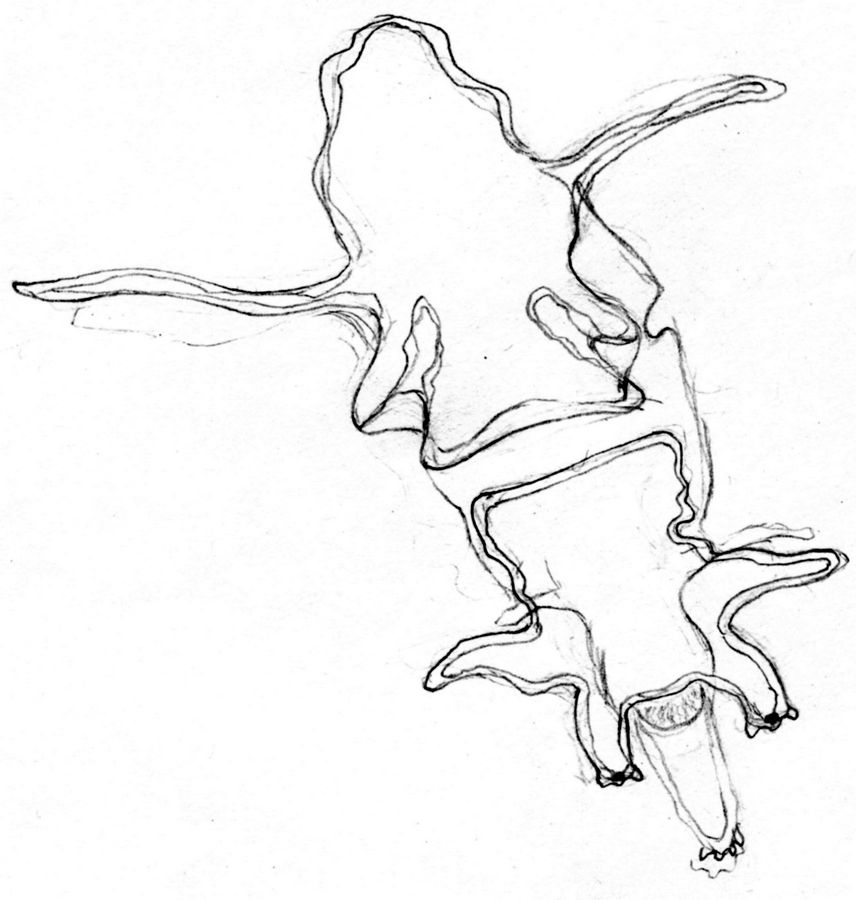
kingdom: Animalia
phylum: Echinodermata
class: Asteroidea
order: Forcipulatida
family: Asteriidae
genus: Asterias
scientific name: Asterias rubens
